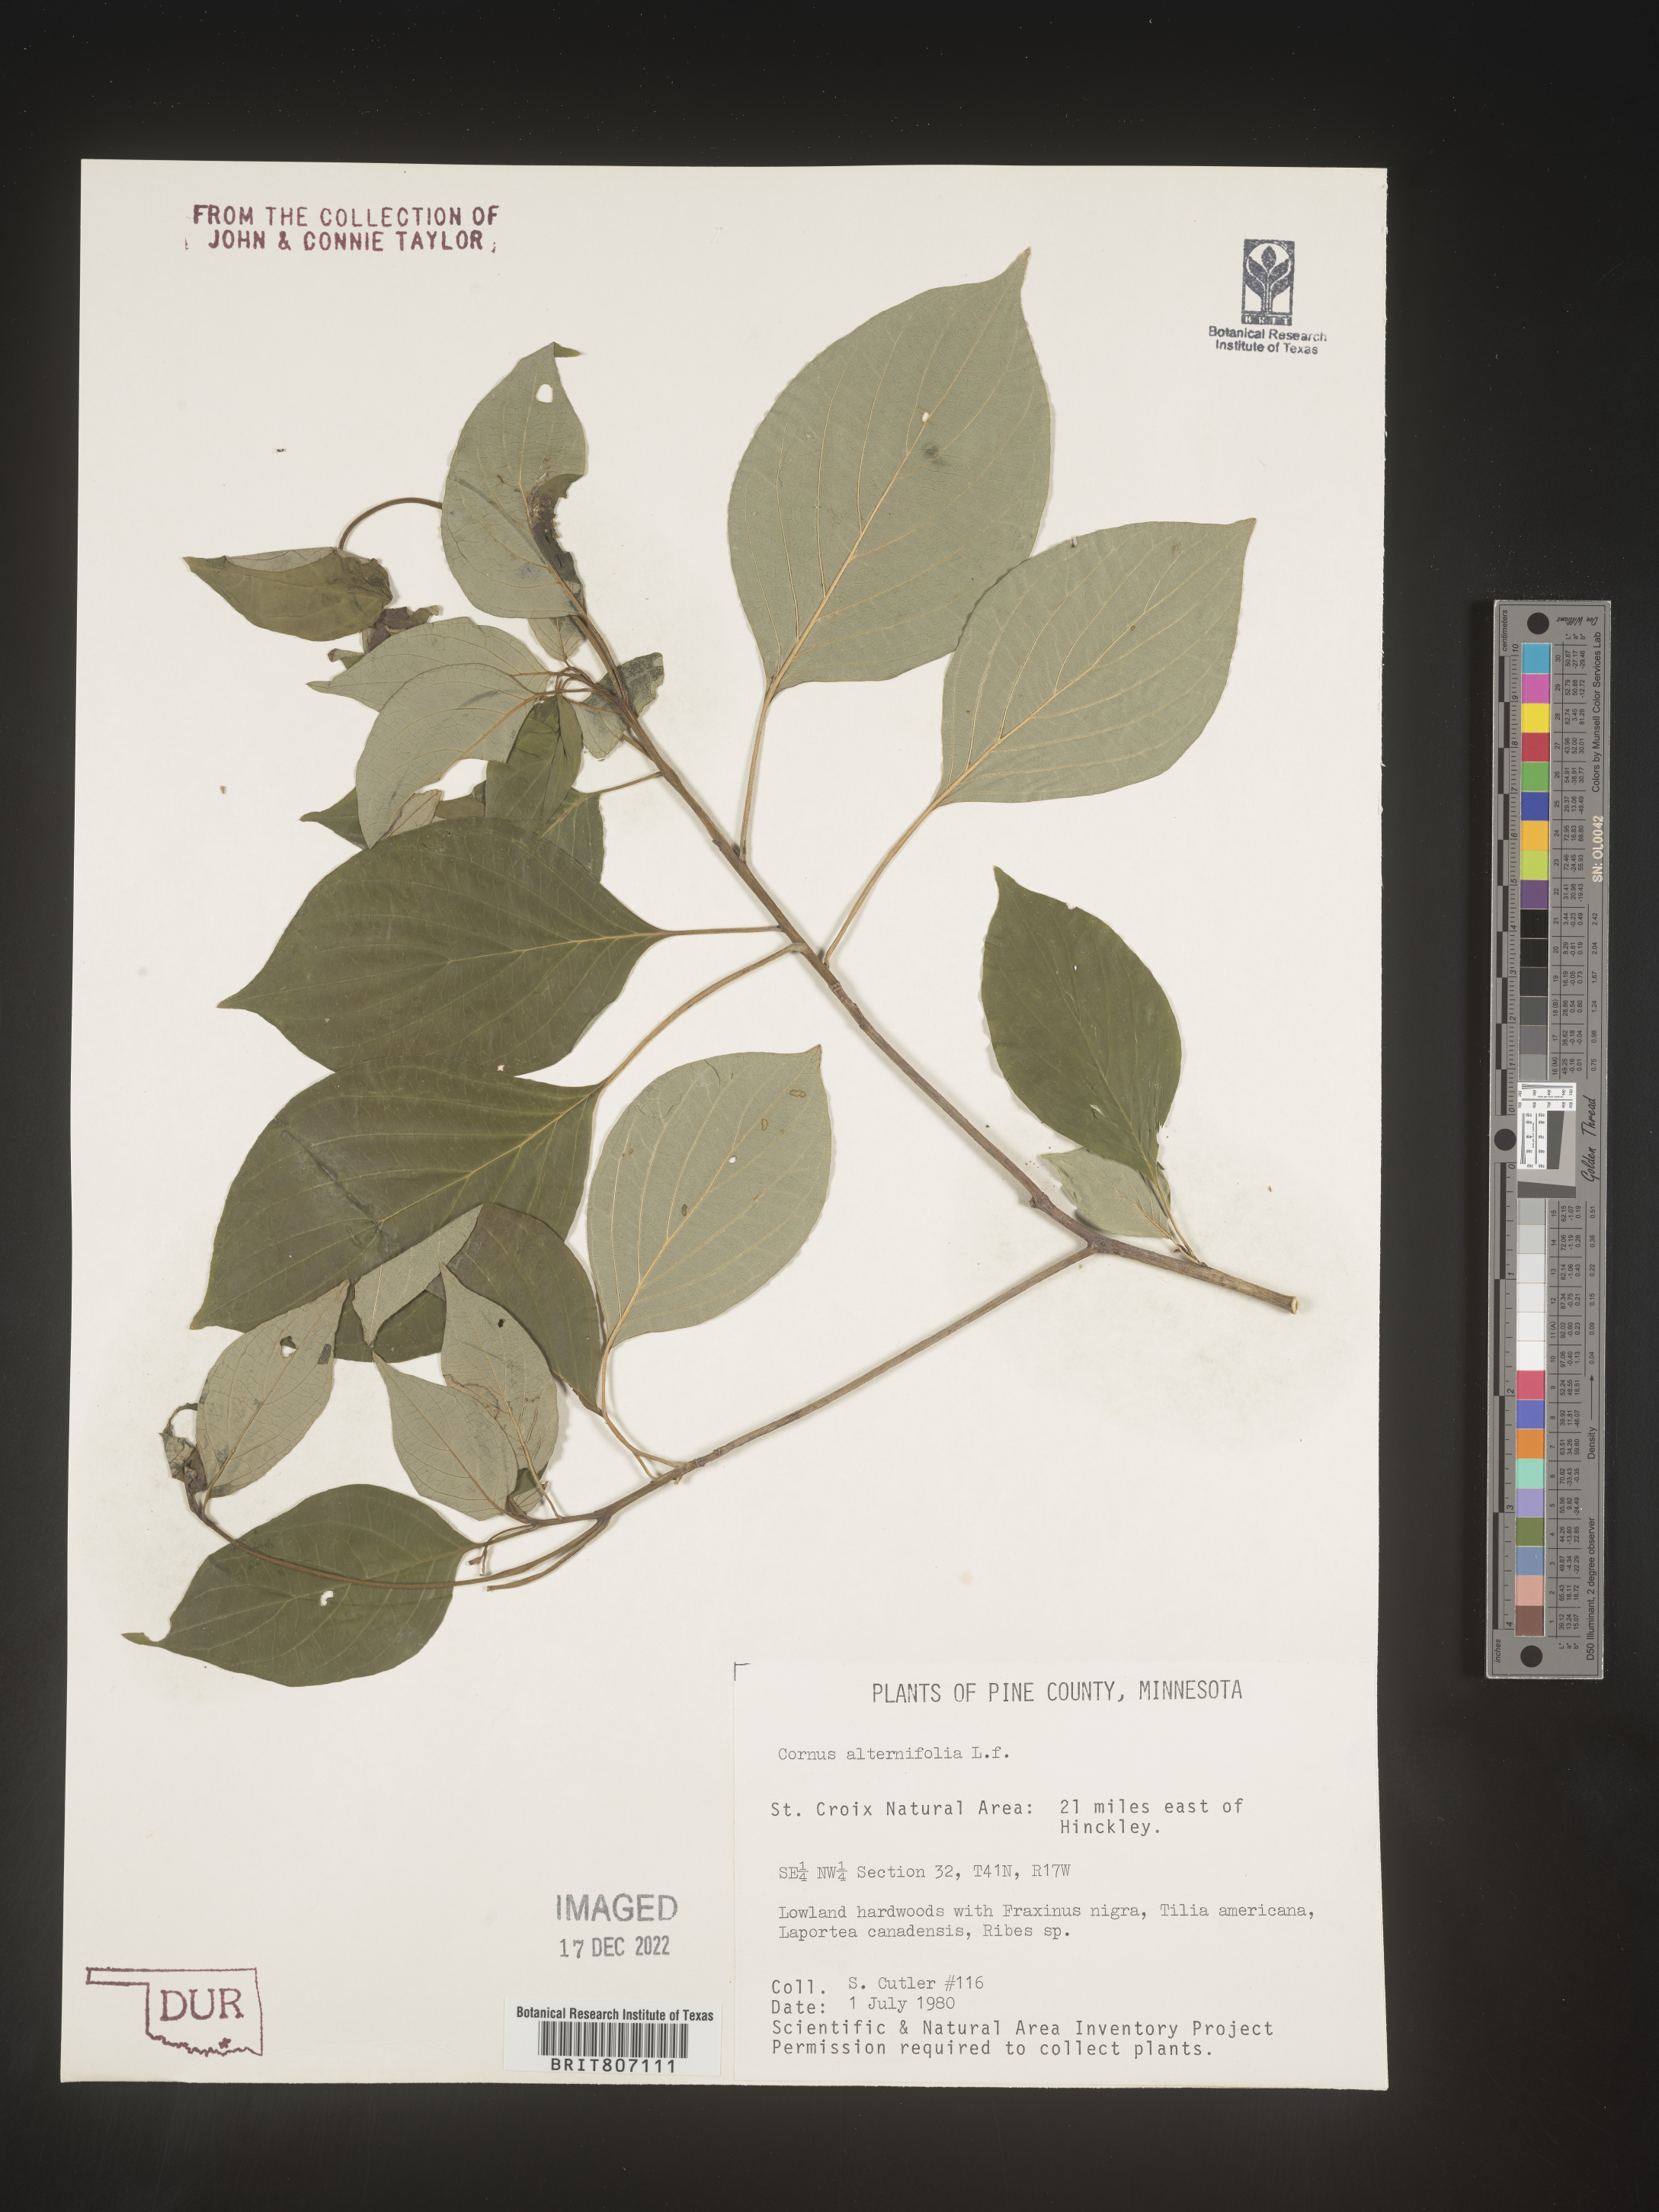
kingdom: Plantae
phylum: Tracheophyta
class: Magnoliopsida
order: Cornales
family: Cornaceae
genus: Cornus
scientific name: Cornus alternifolia
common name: Pagoda dogwood
